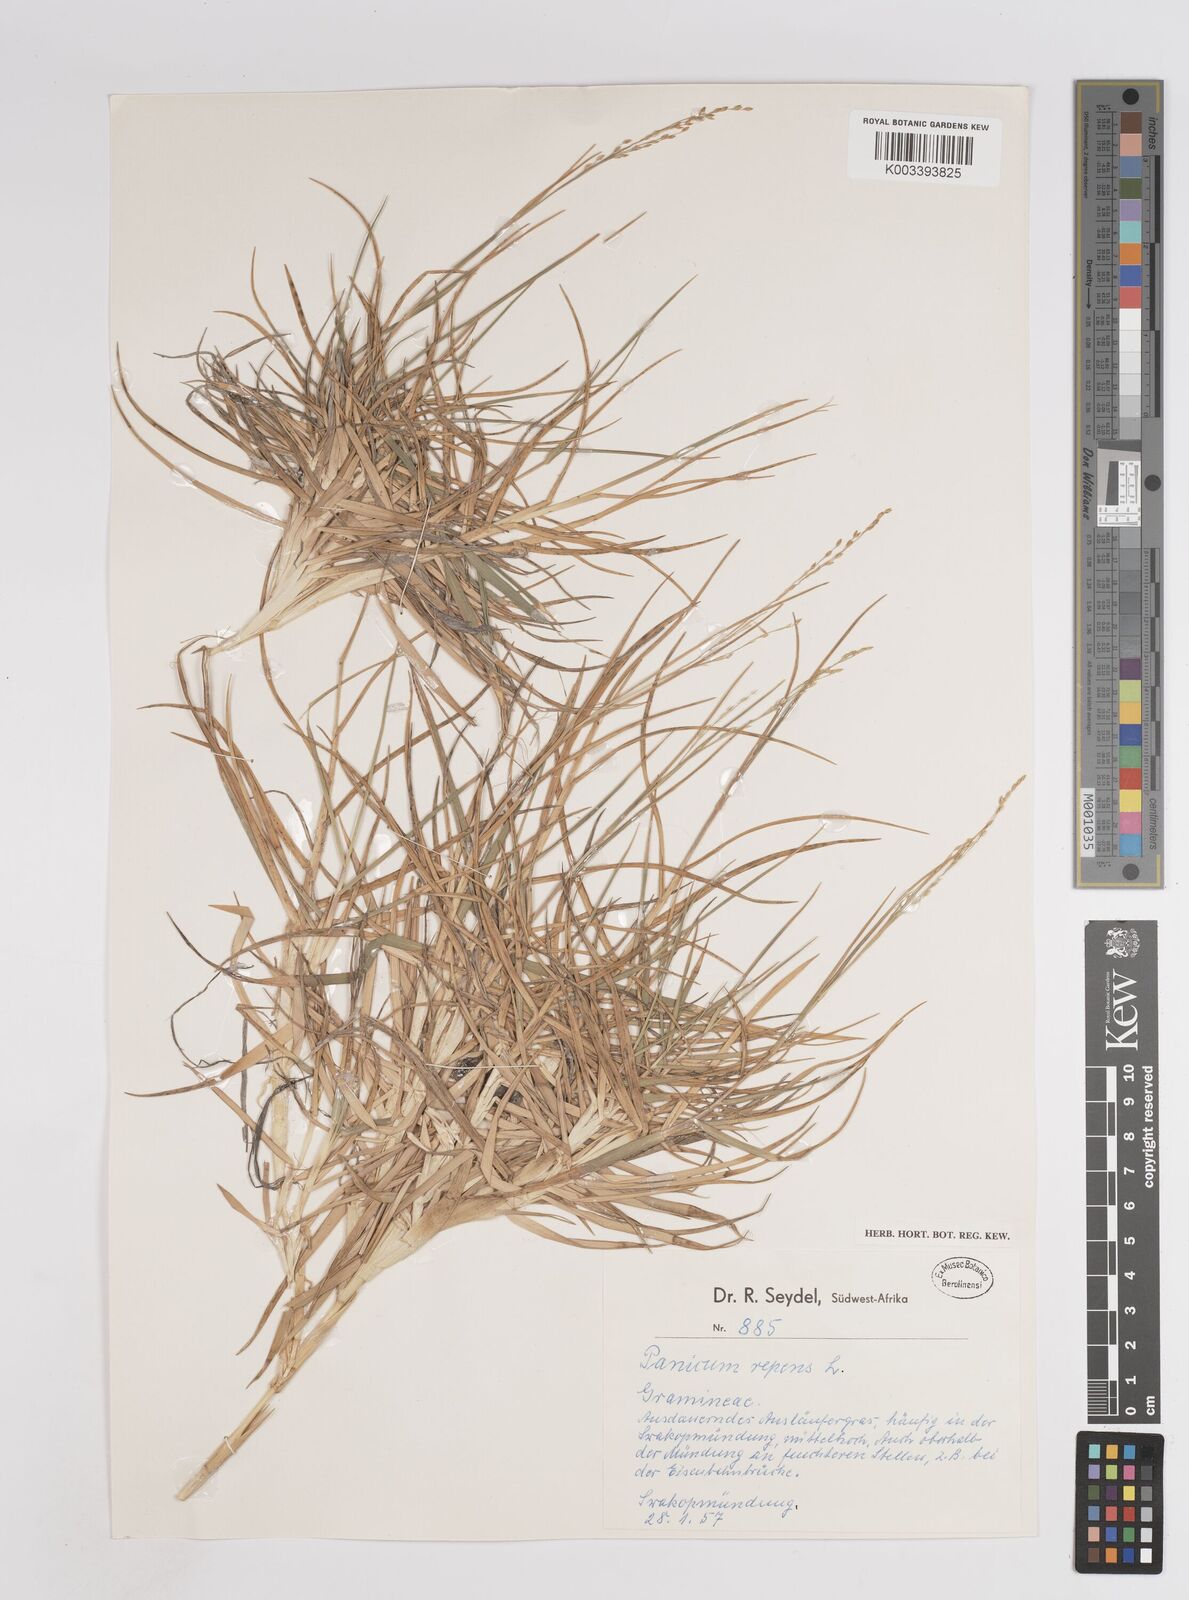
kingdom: Plantae
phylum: Tracheophyta
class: Liliopsida
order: Poales
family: Poaceae
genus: Panicum
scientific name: Panicum repens
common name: Torpedo grass
